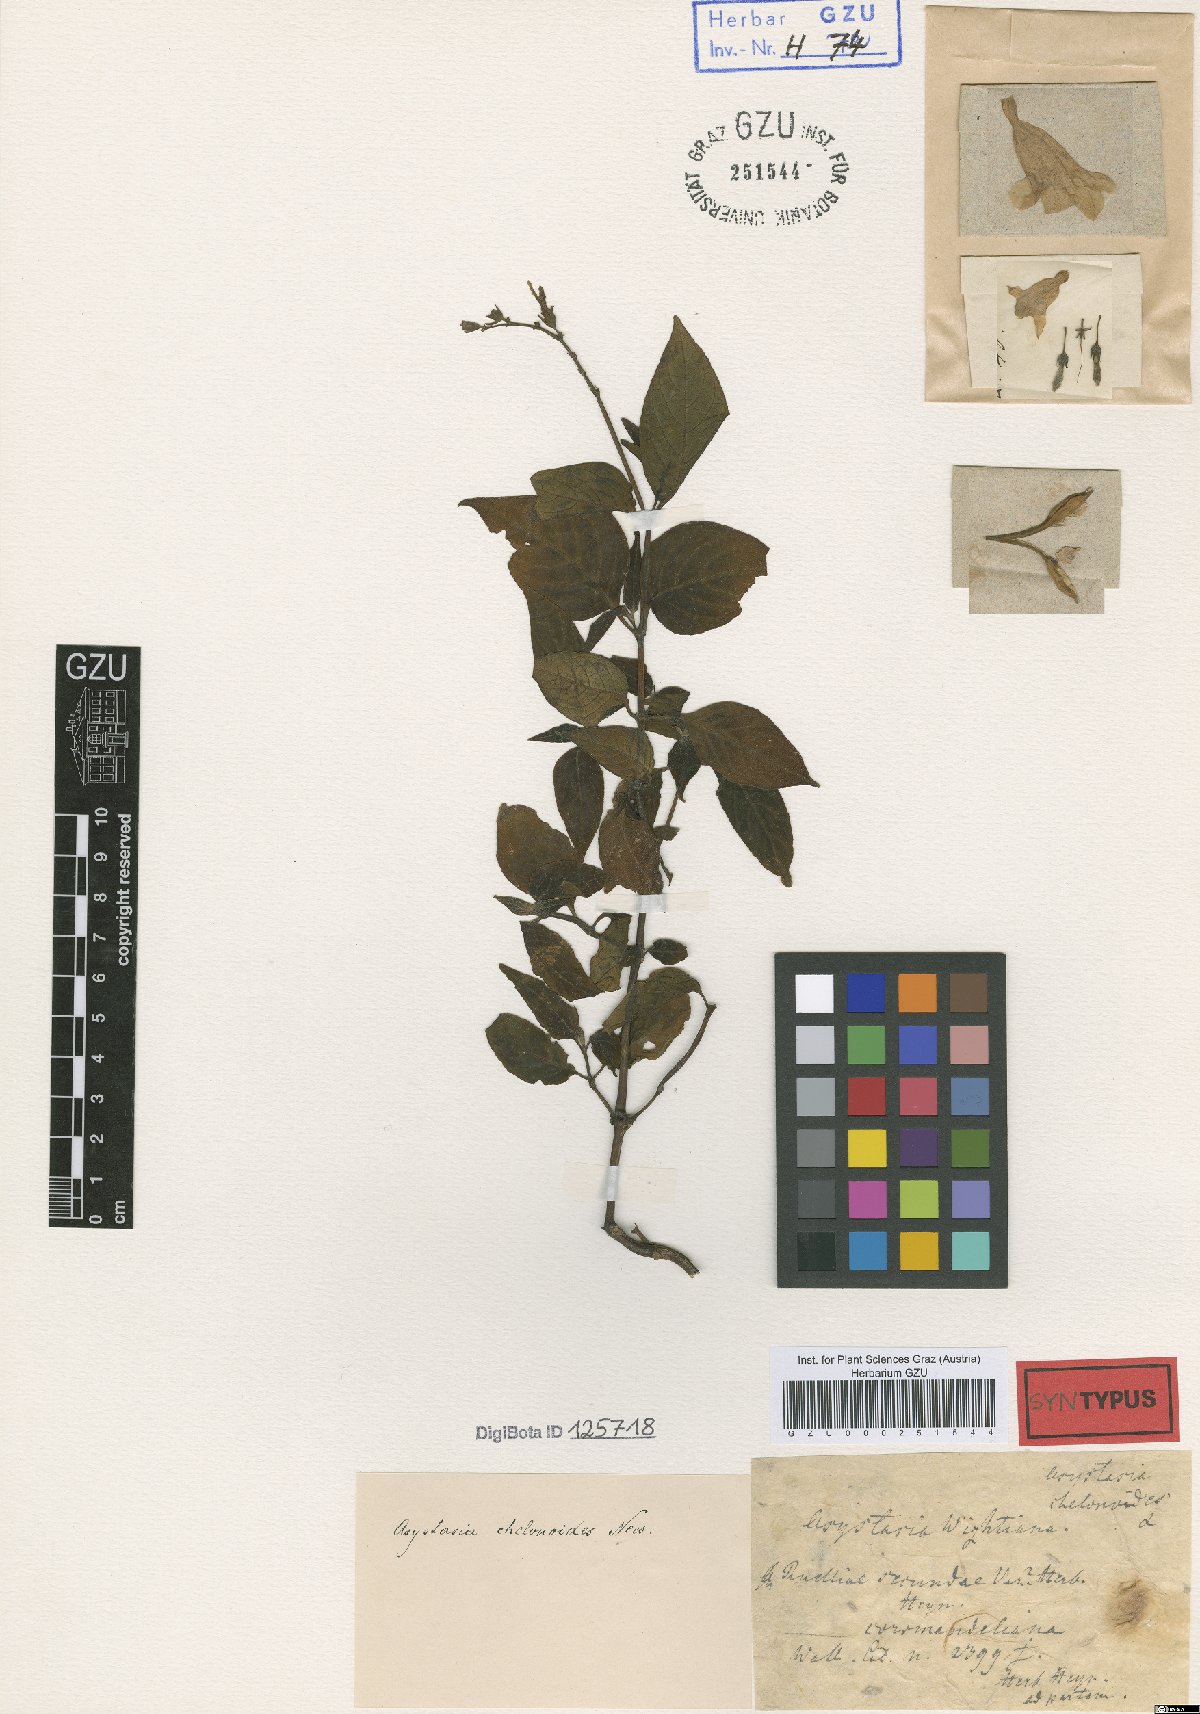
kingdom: Plantae
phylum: Tracheophyta
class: Magnoliopsida
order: Lamiales
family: Acanthaceae
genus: Asystasia
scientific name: Asystasia chelonoides
